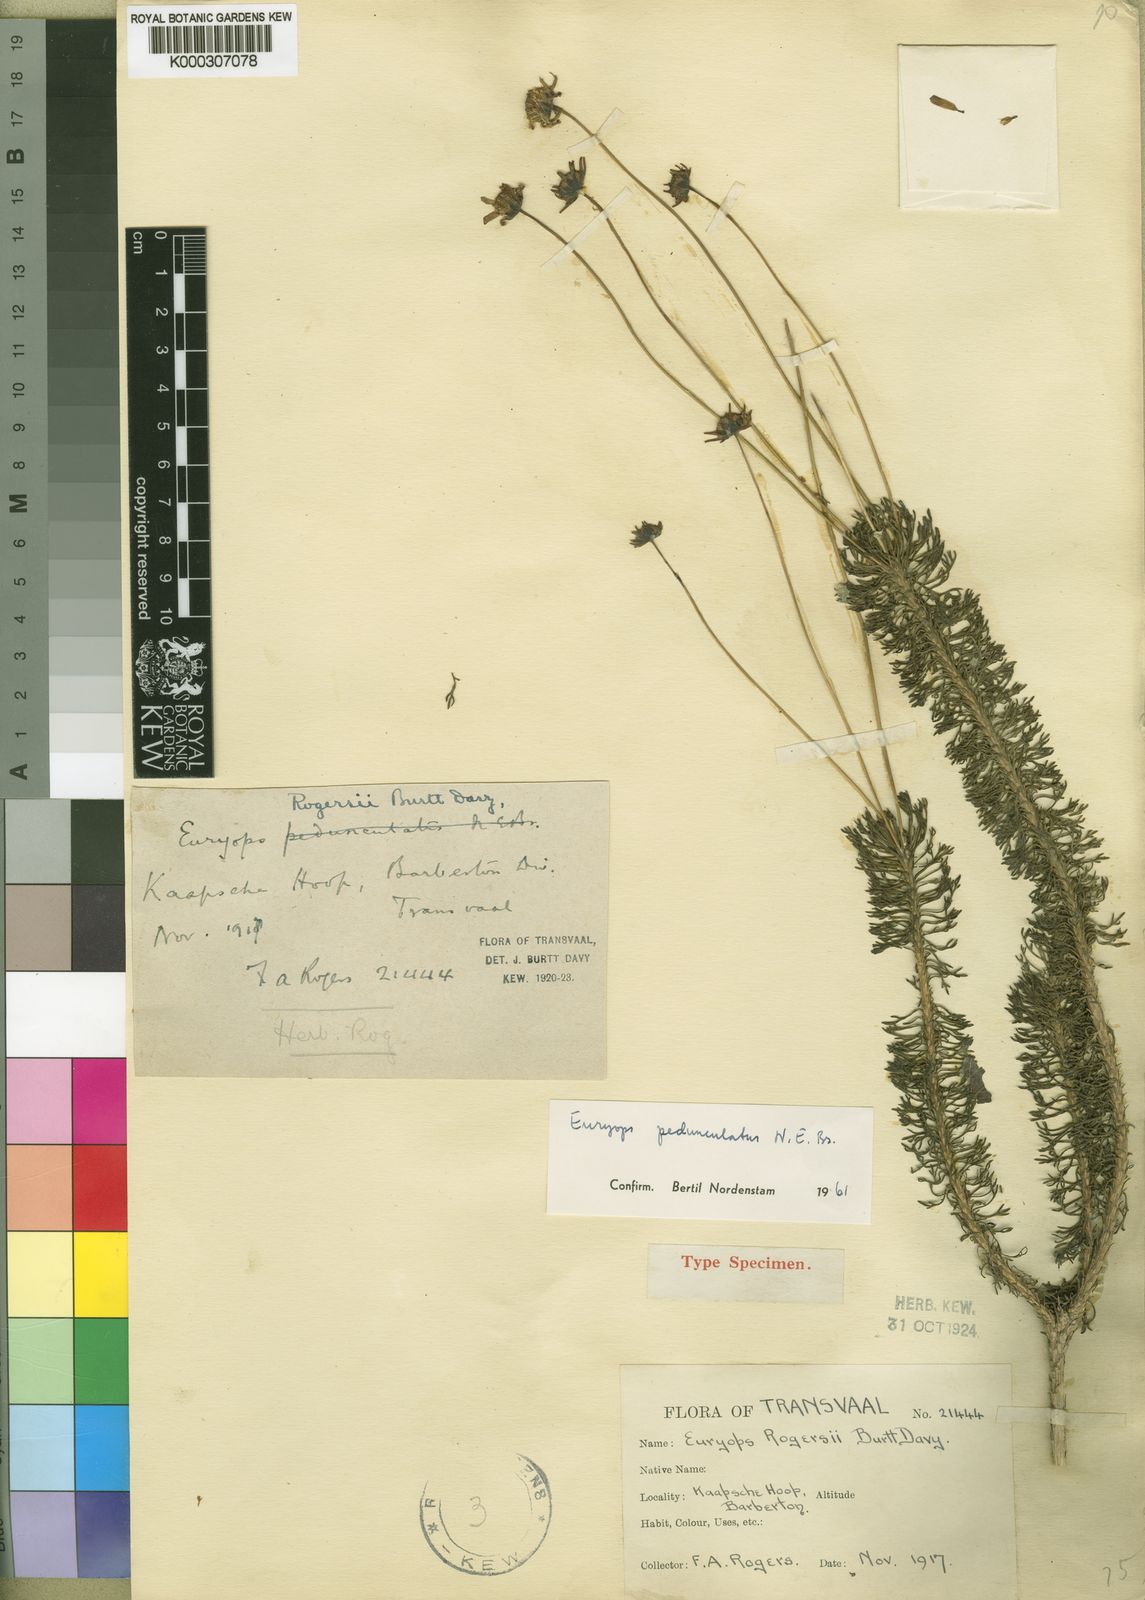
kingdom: Plantae
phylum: Tracheophyta
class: Magnoliopsida
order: Asterales
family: Asteraceae
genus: Euryops
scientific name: Euryops pedunculatus
